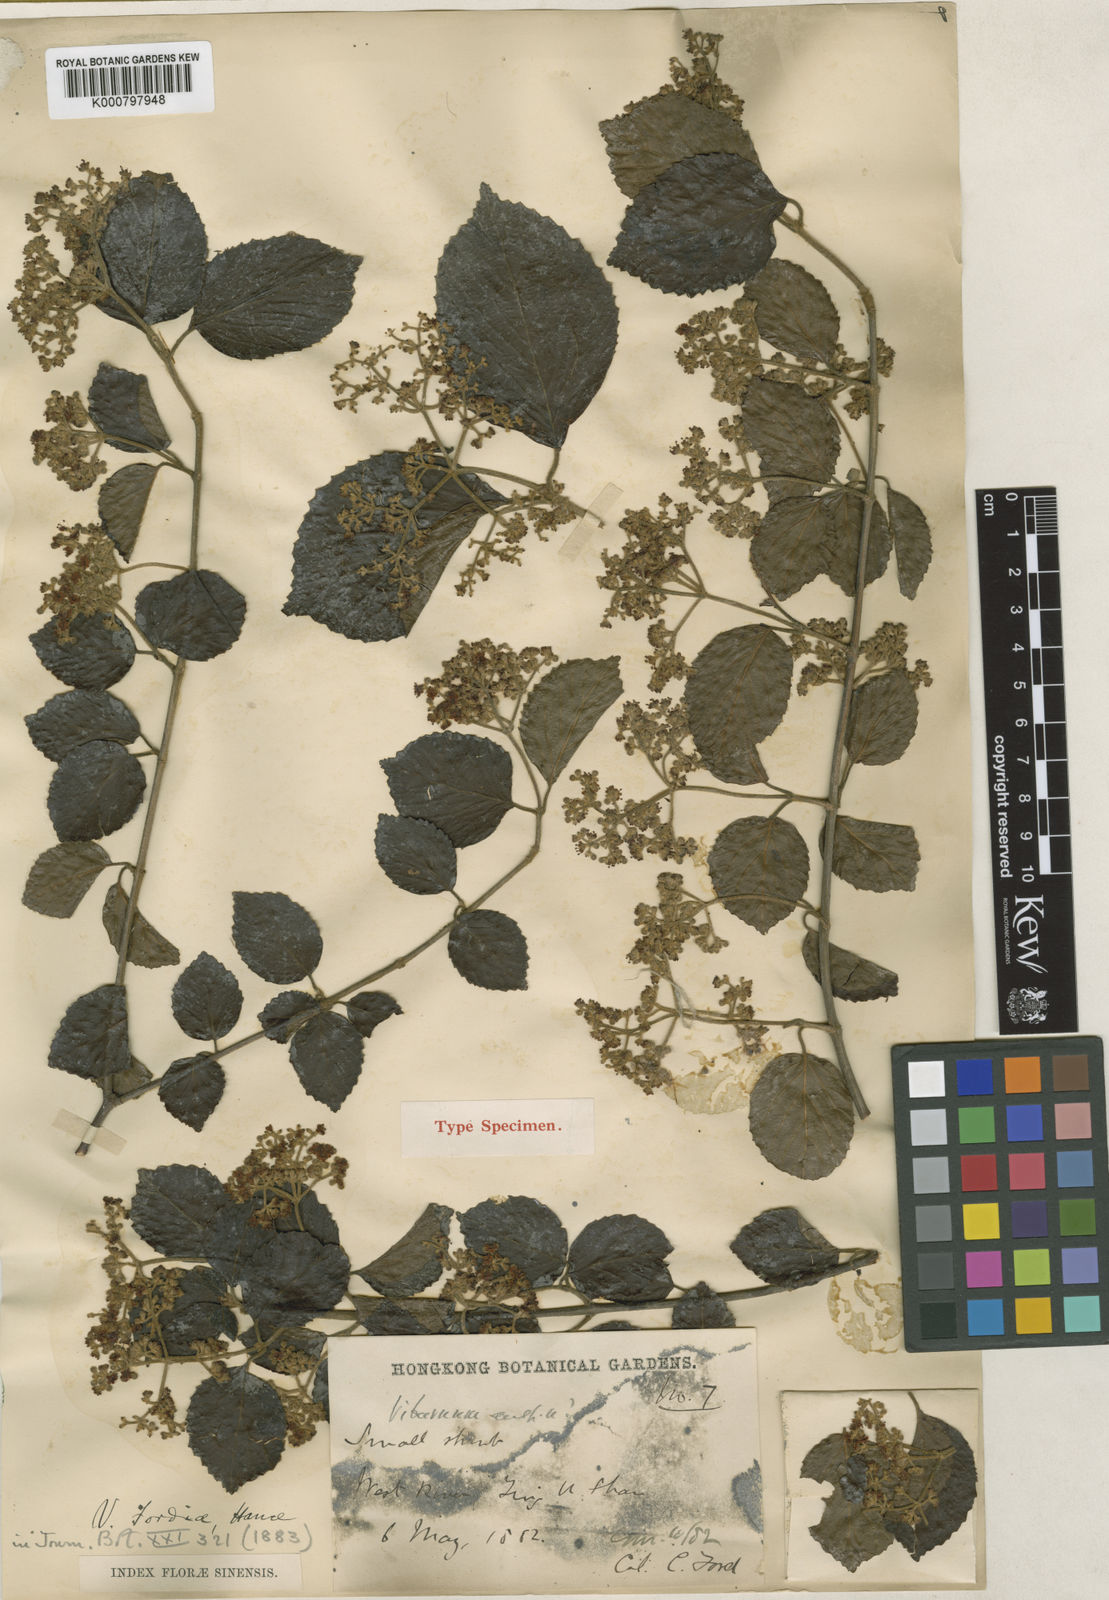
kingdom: Plantae
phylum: Tracheophyta
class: Magnoliopsida
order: Dipsacales
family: Viburnaceae
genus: Viburnum
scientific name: Viburnum fordiae
